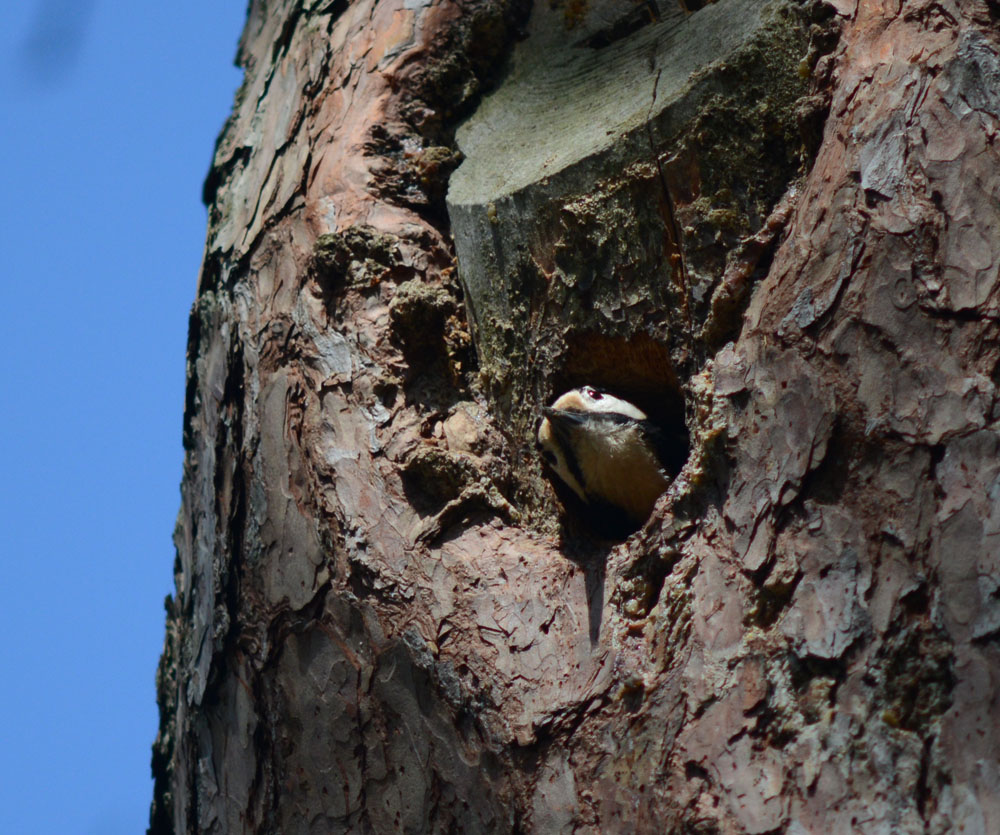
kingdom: Animalia
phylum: Chordata
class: Aves
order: Piciformes
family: Picidae
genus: Dendrocopos
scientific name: Dendrocopos major
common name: Great spotted woodpecker
